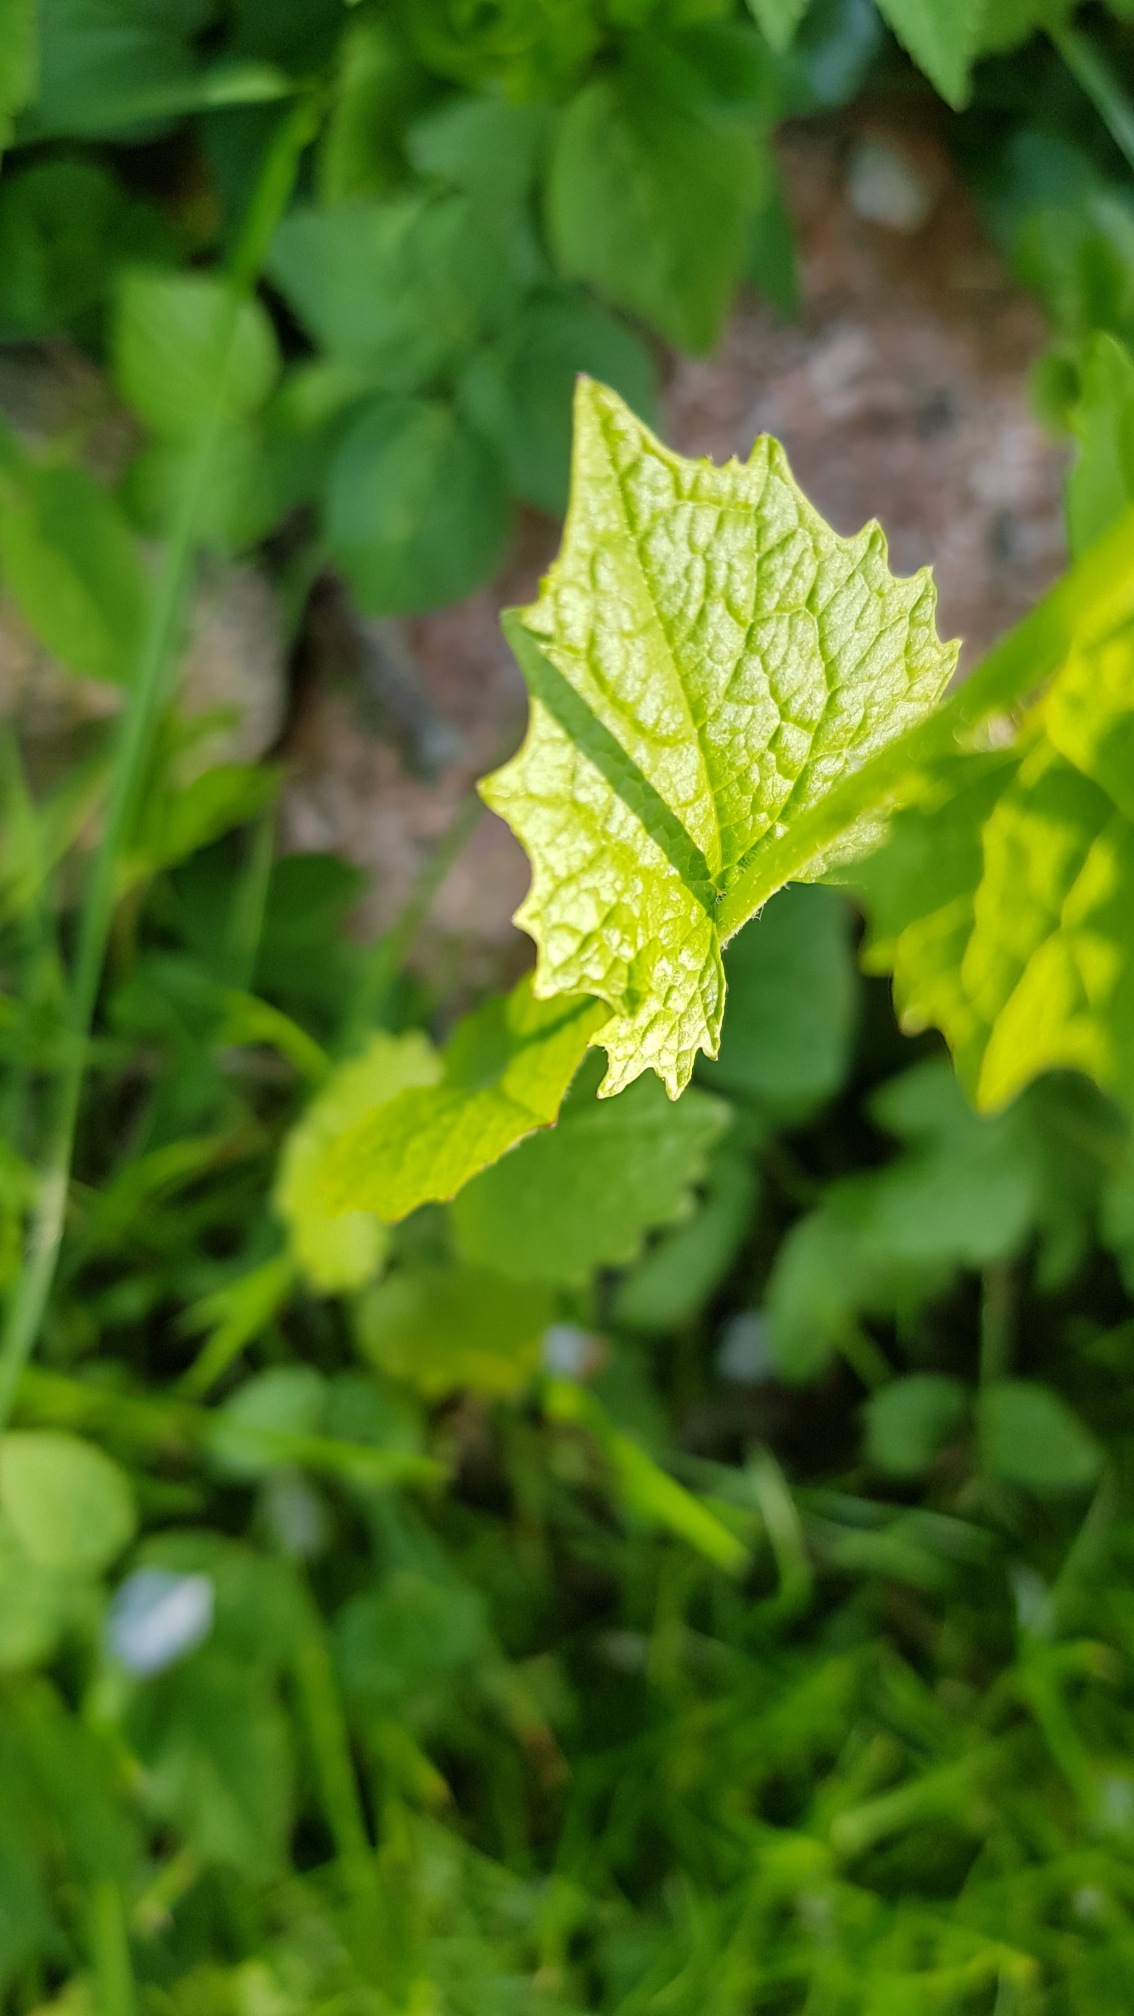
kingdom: Plantae
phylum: Tracheophyta
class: Magnoliopsida
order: Brassicales
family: Brassicaceae
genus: Alliaria
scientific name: Alliaria petiolata
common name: Løgkarse
